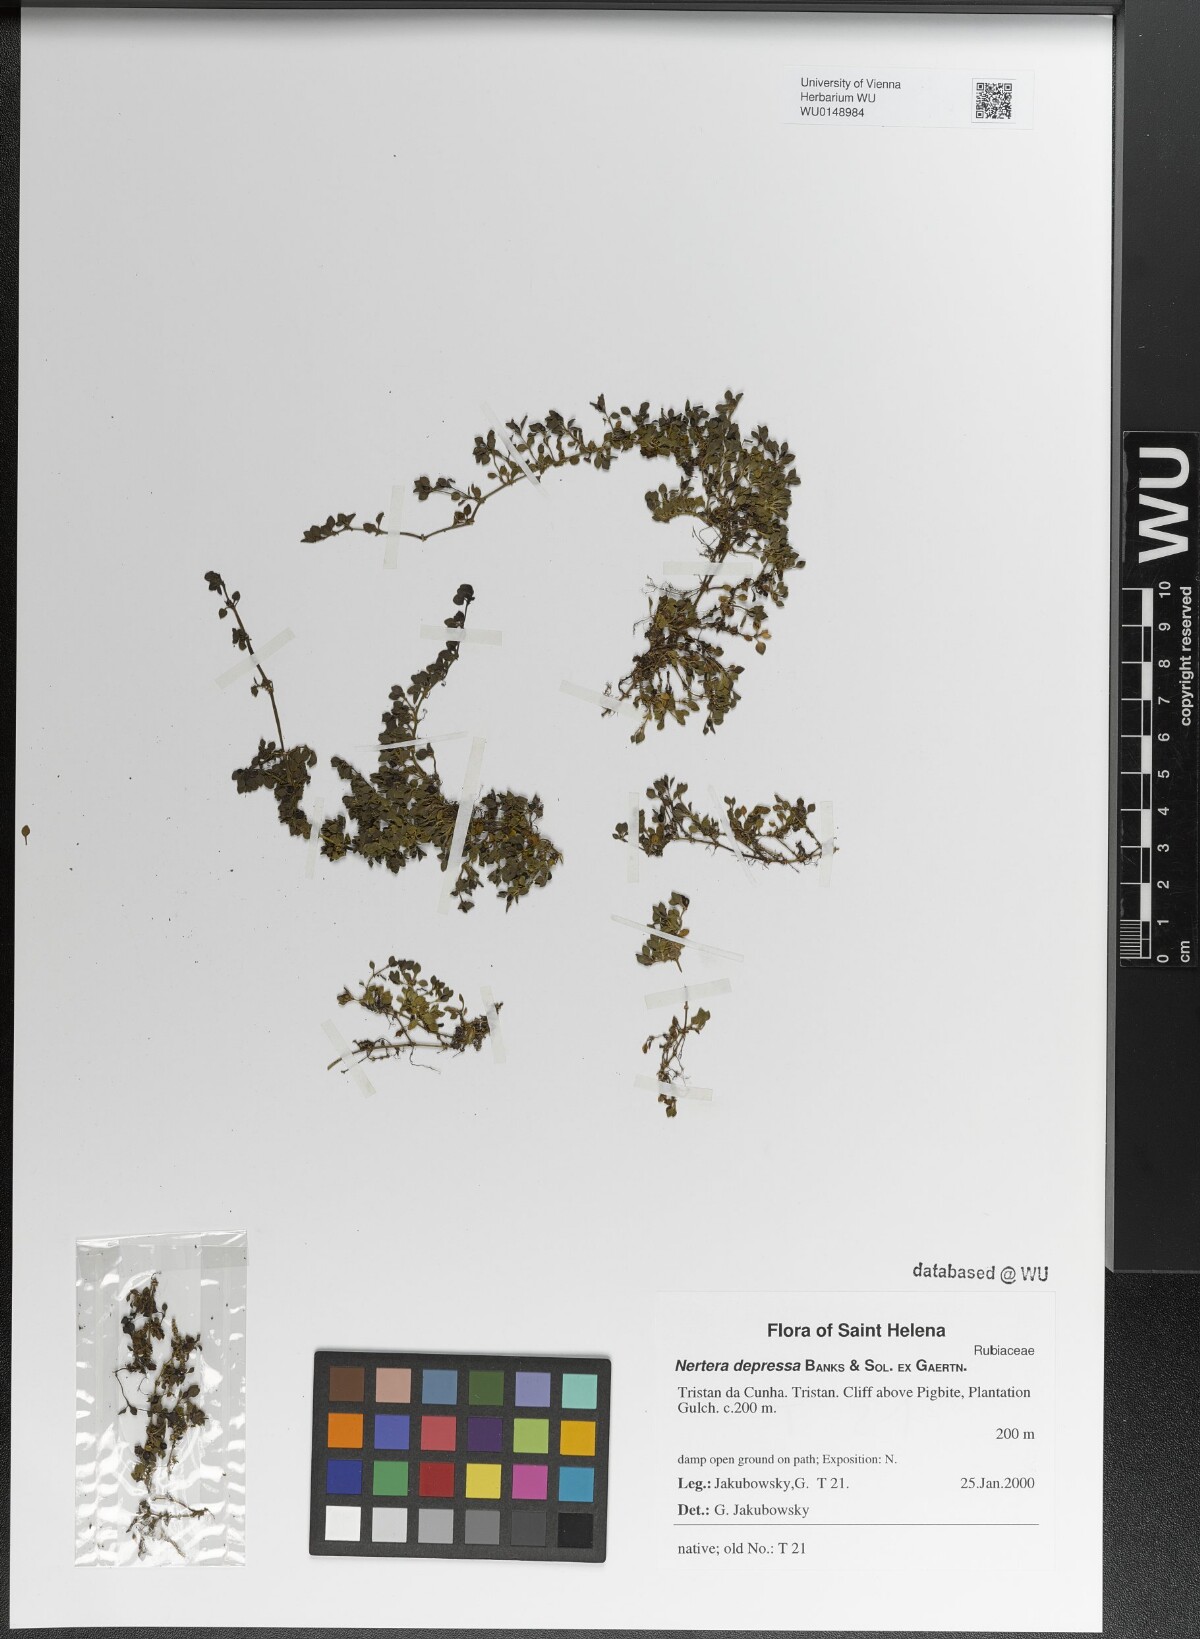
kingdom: Plantae
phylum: Tracheophyta
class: Magnoliopsida
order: Gentianales
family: Rubiaceae
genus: Nertera
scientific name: Nertera granadensis
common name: Beadplant
